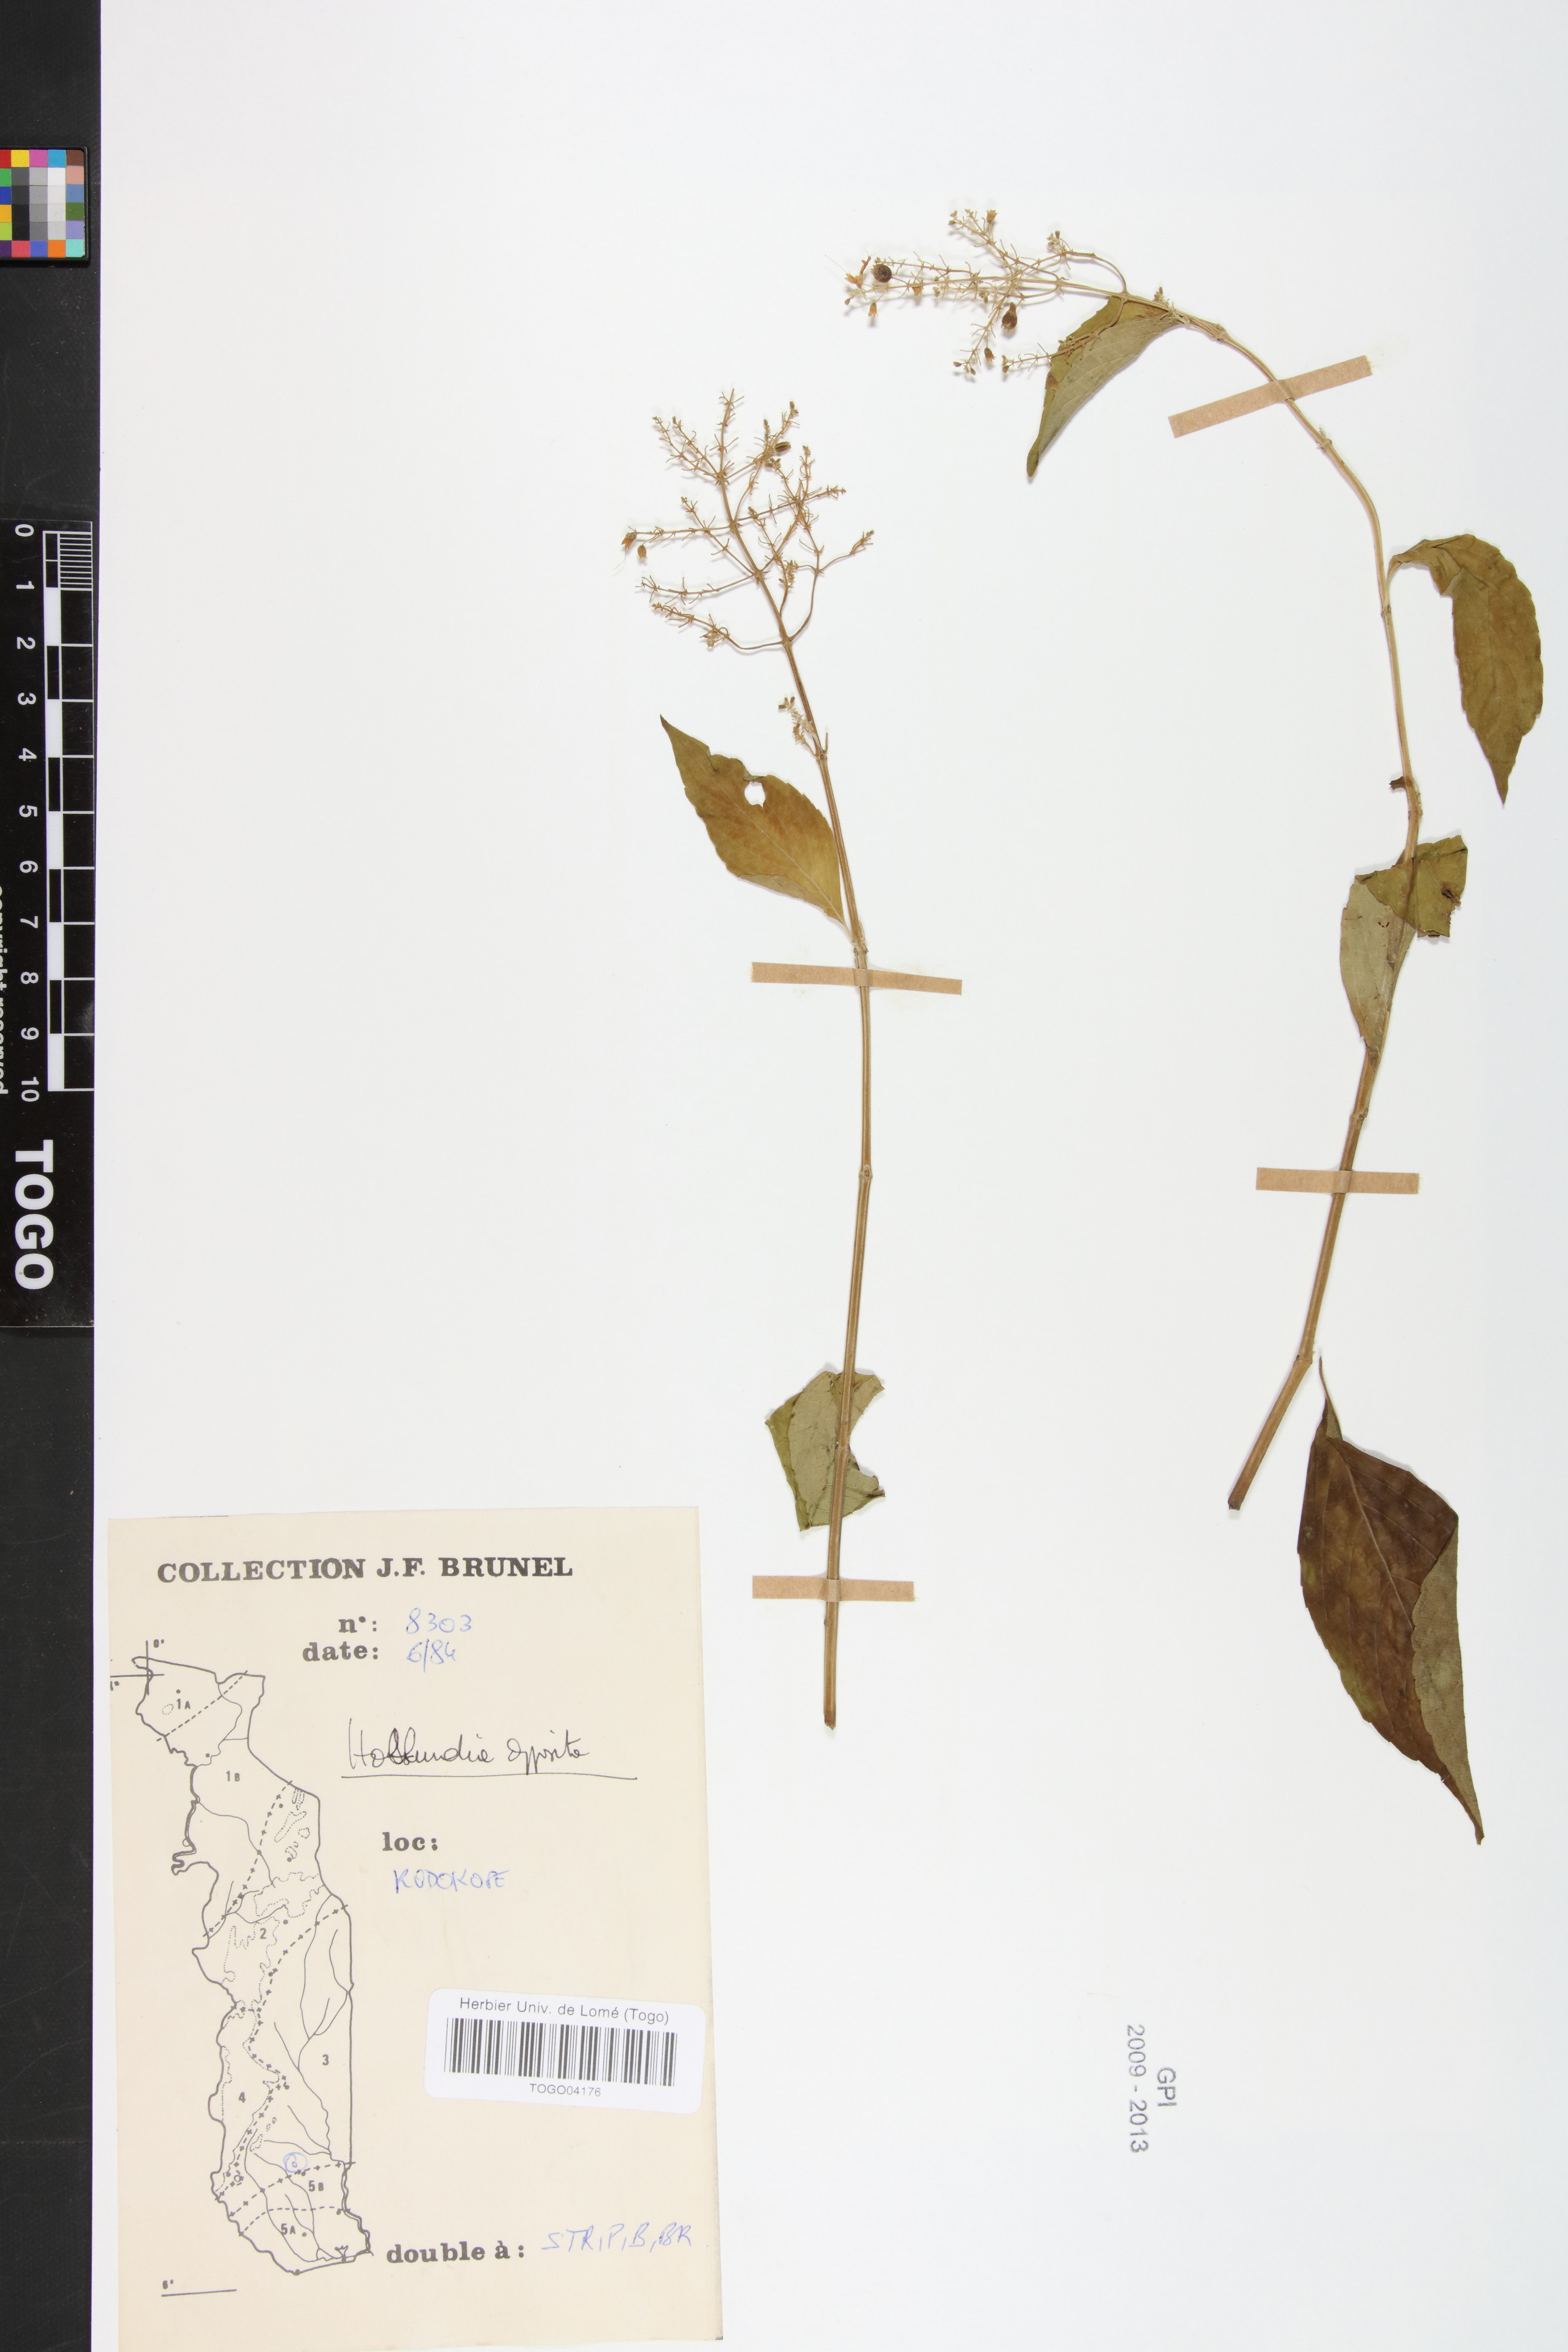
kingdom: Plantae
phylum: Tracheophyta
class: Magnoliopsida
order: Lamiales
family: Lamiaceae
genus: Hoslundia
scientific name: Hoslundia opposita
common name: Kamyuye
